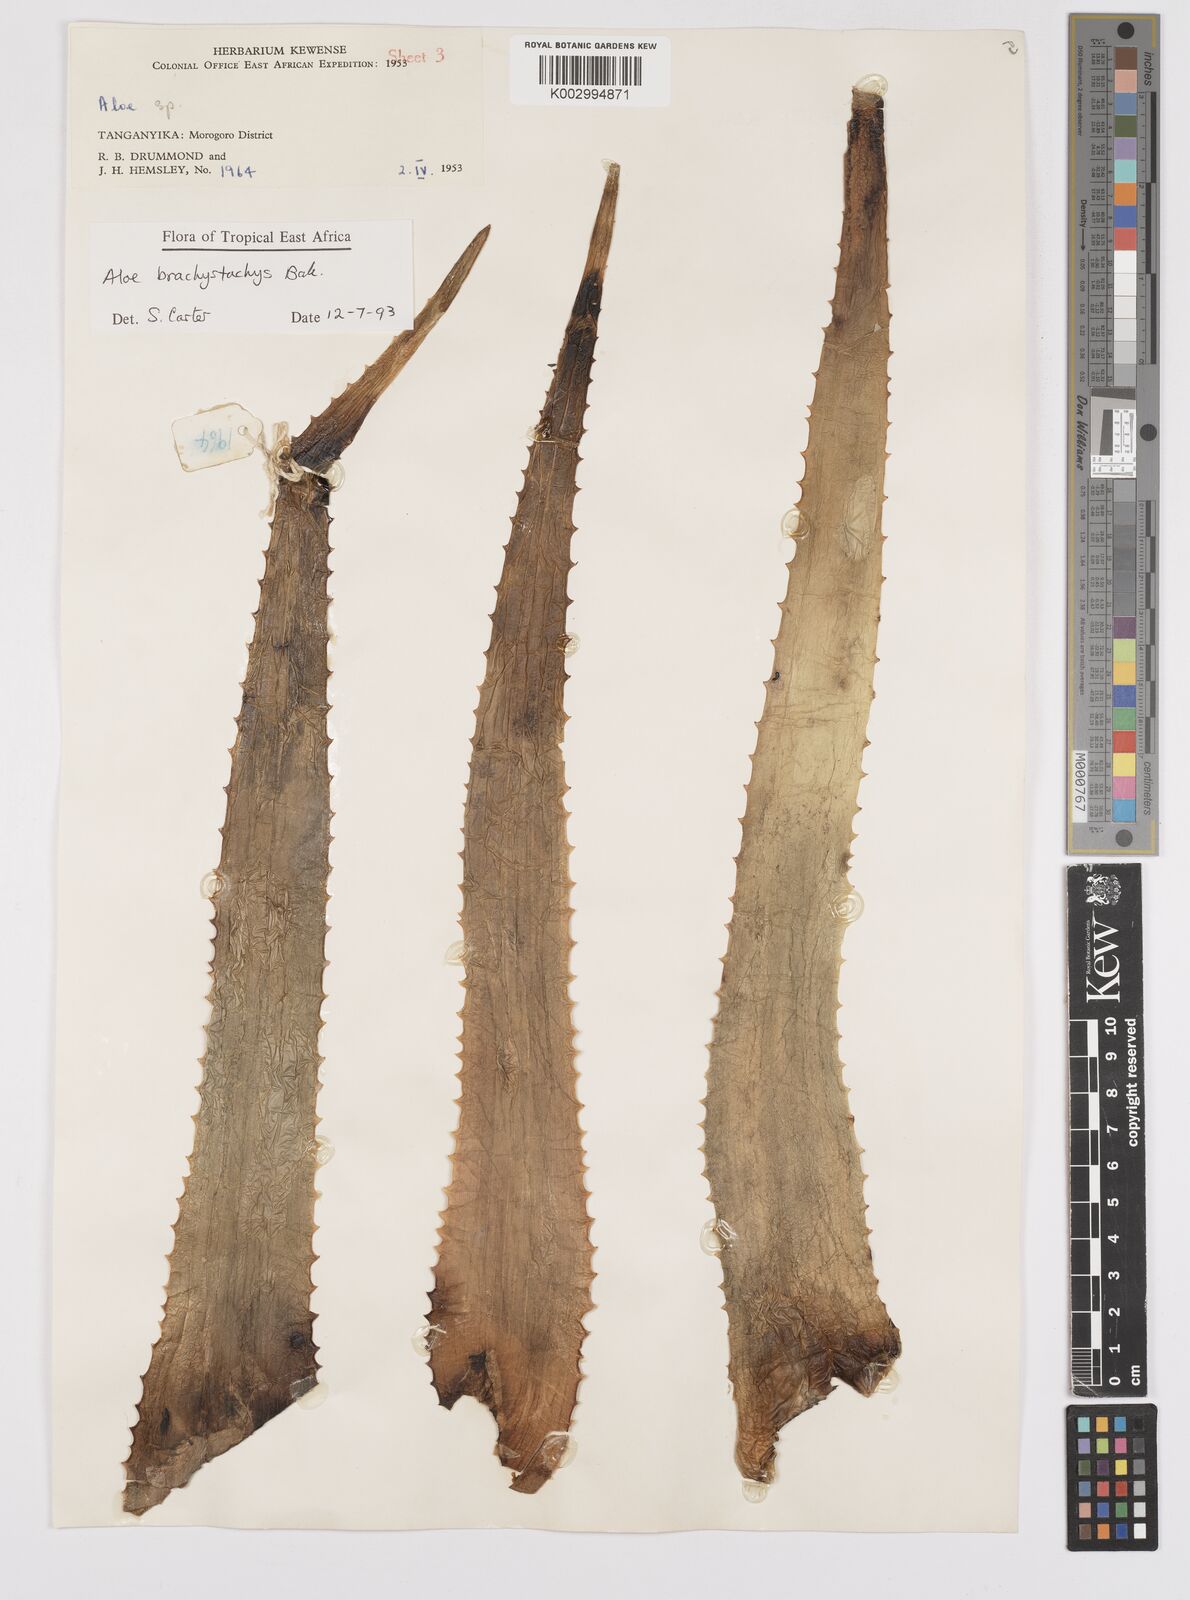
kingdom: Plantae
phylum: Tracheophyta
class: Liliopsida
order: Asparagales
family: Asphodelaceae
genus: Aloe
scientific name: Aloe brachystachys
